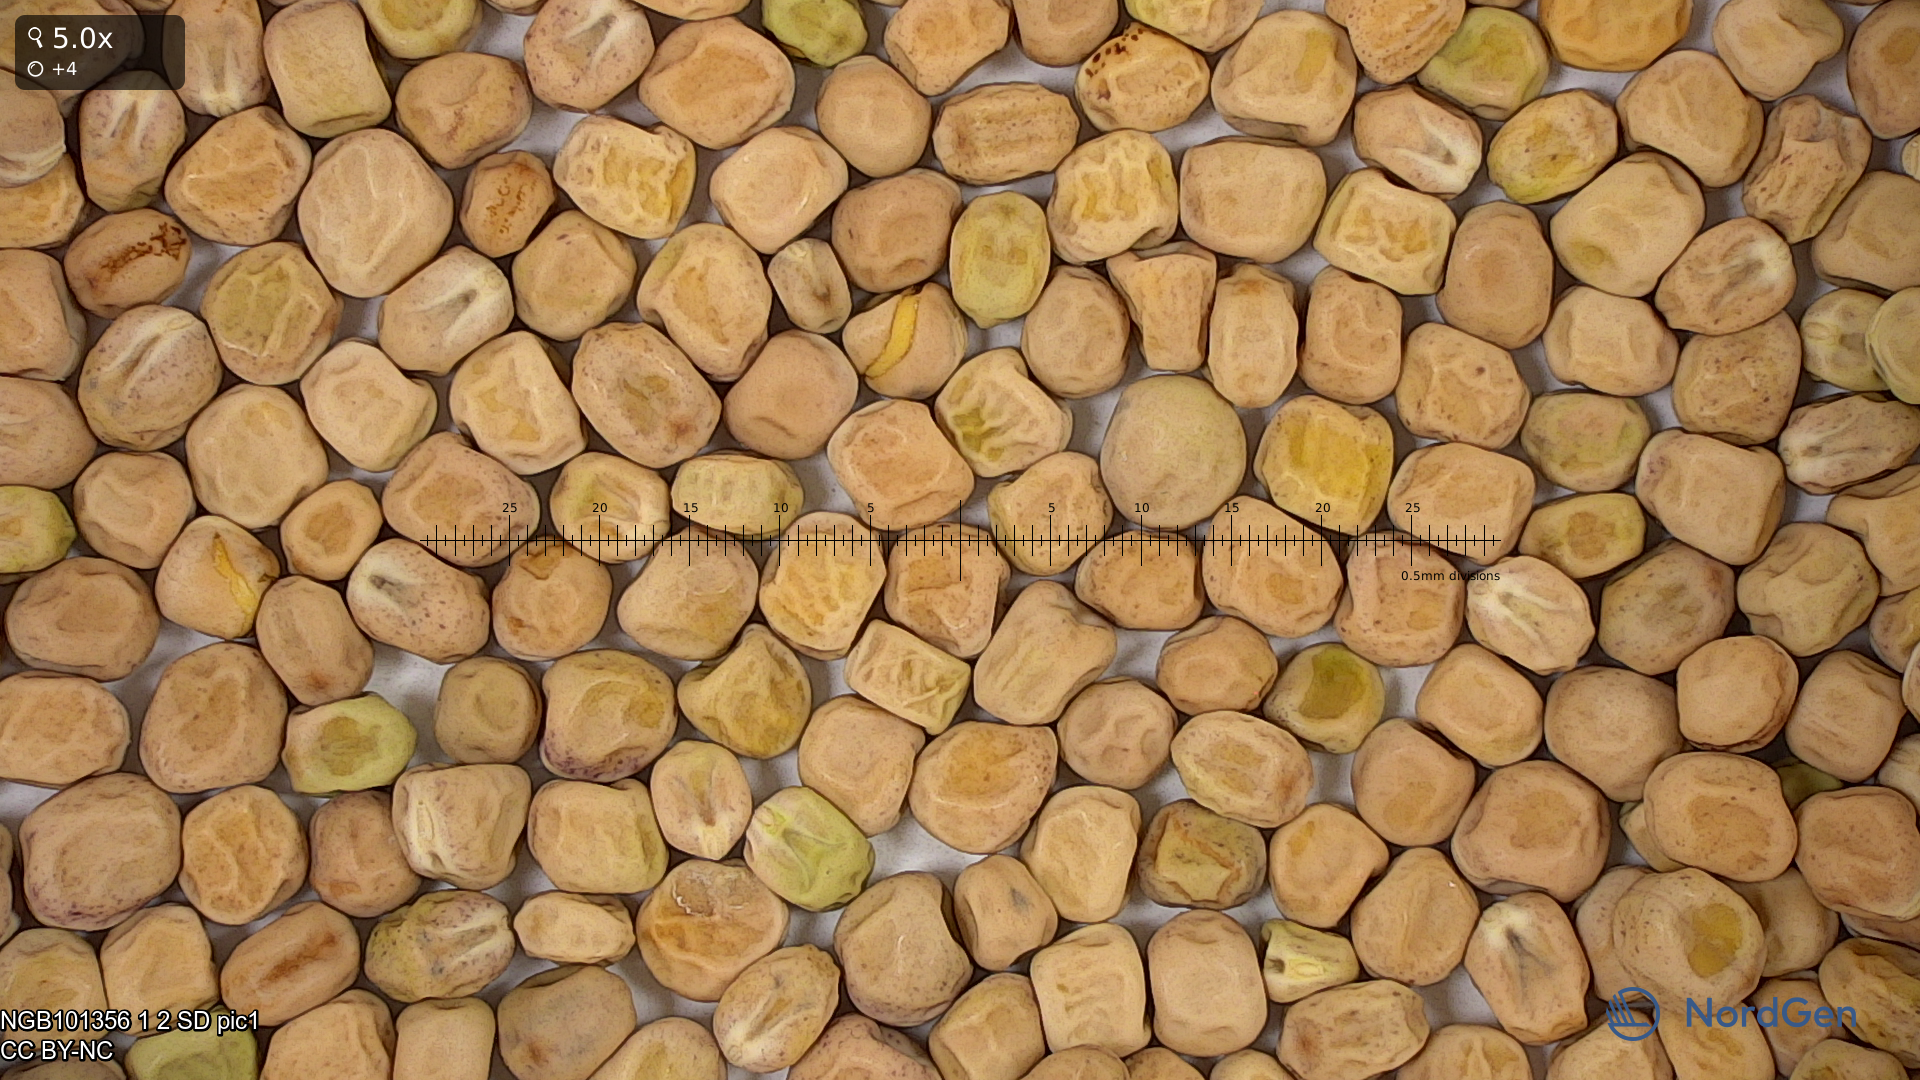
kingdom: Plantae
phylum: Tracheophyta
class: Magnoliopsida
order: Fabales
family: Fabaceae
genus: Lathyrus
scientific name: Lathyrus oleraceus
